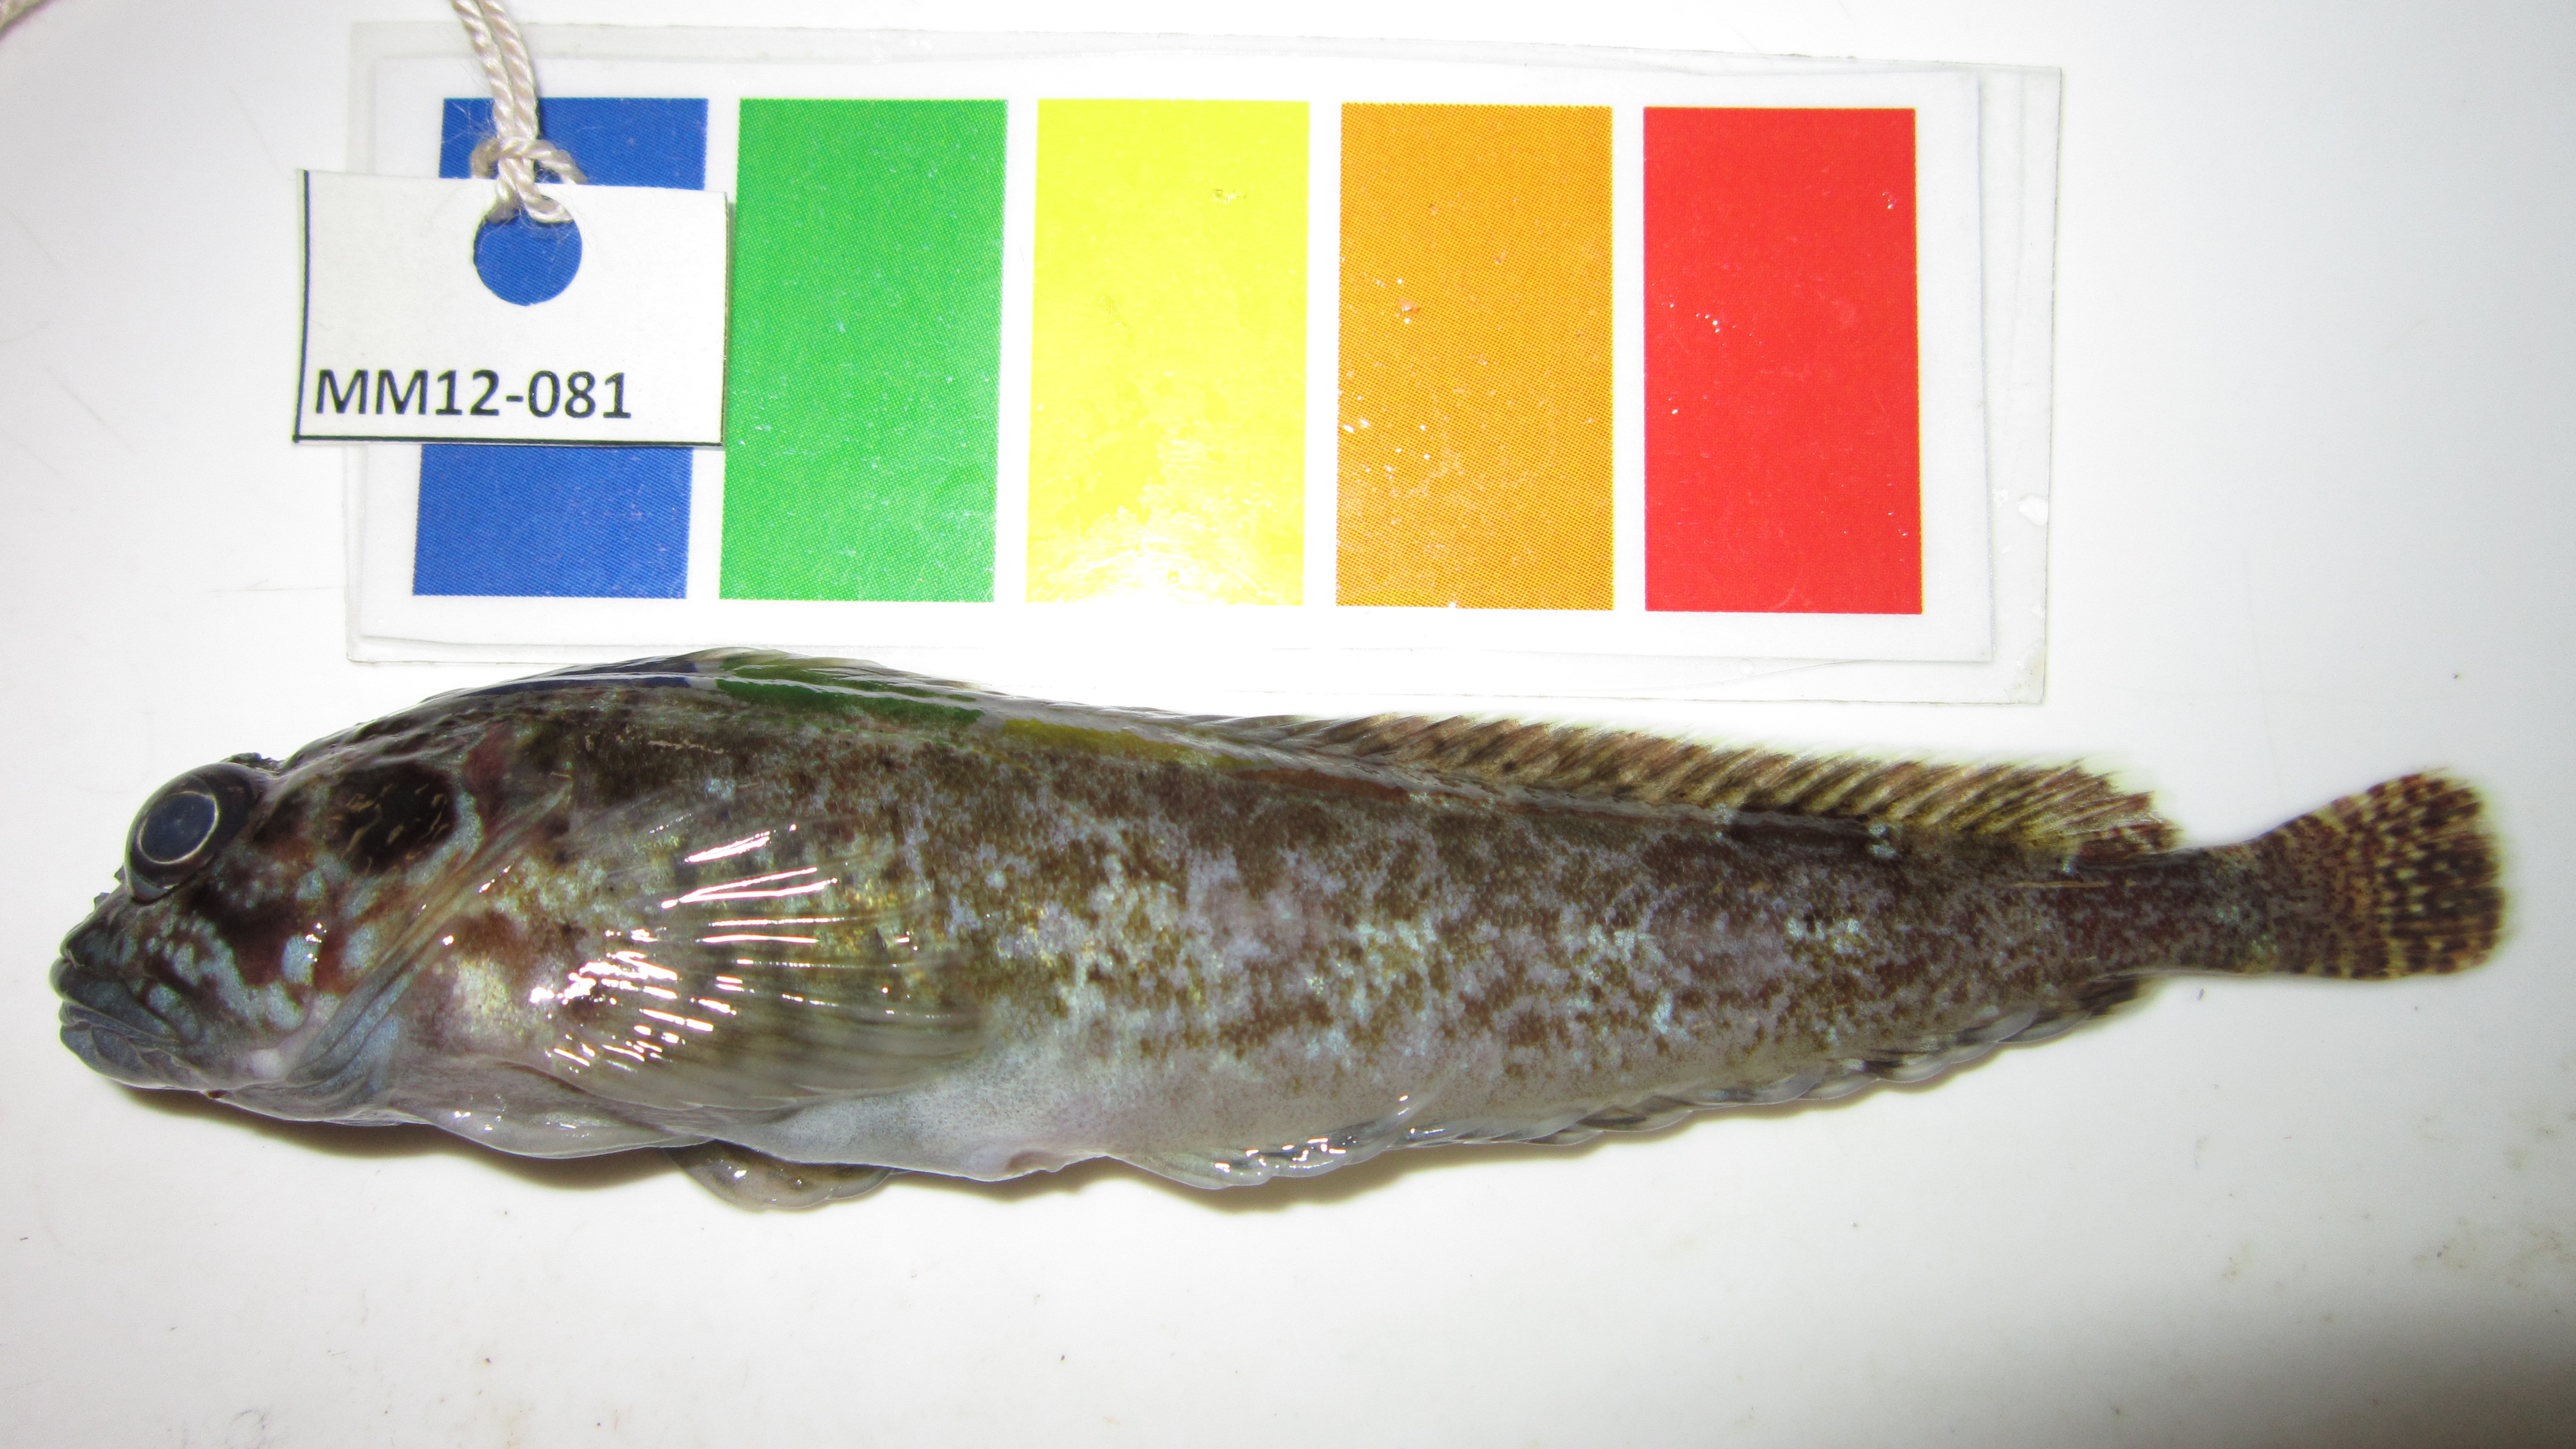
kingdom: Animalia
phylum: Chordata
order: Perciformes
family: Clinidae
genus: Clinus
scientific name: Clinus cottoides
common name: Bluntnose klipfish
